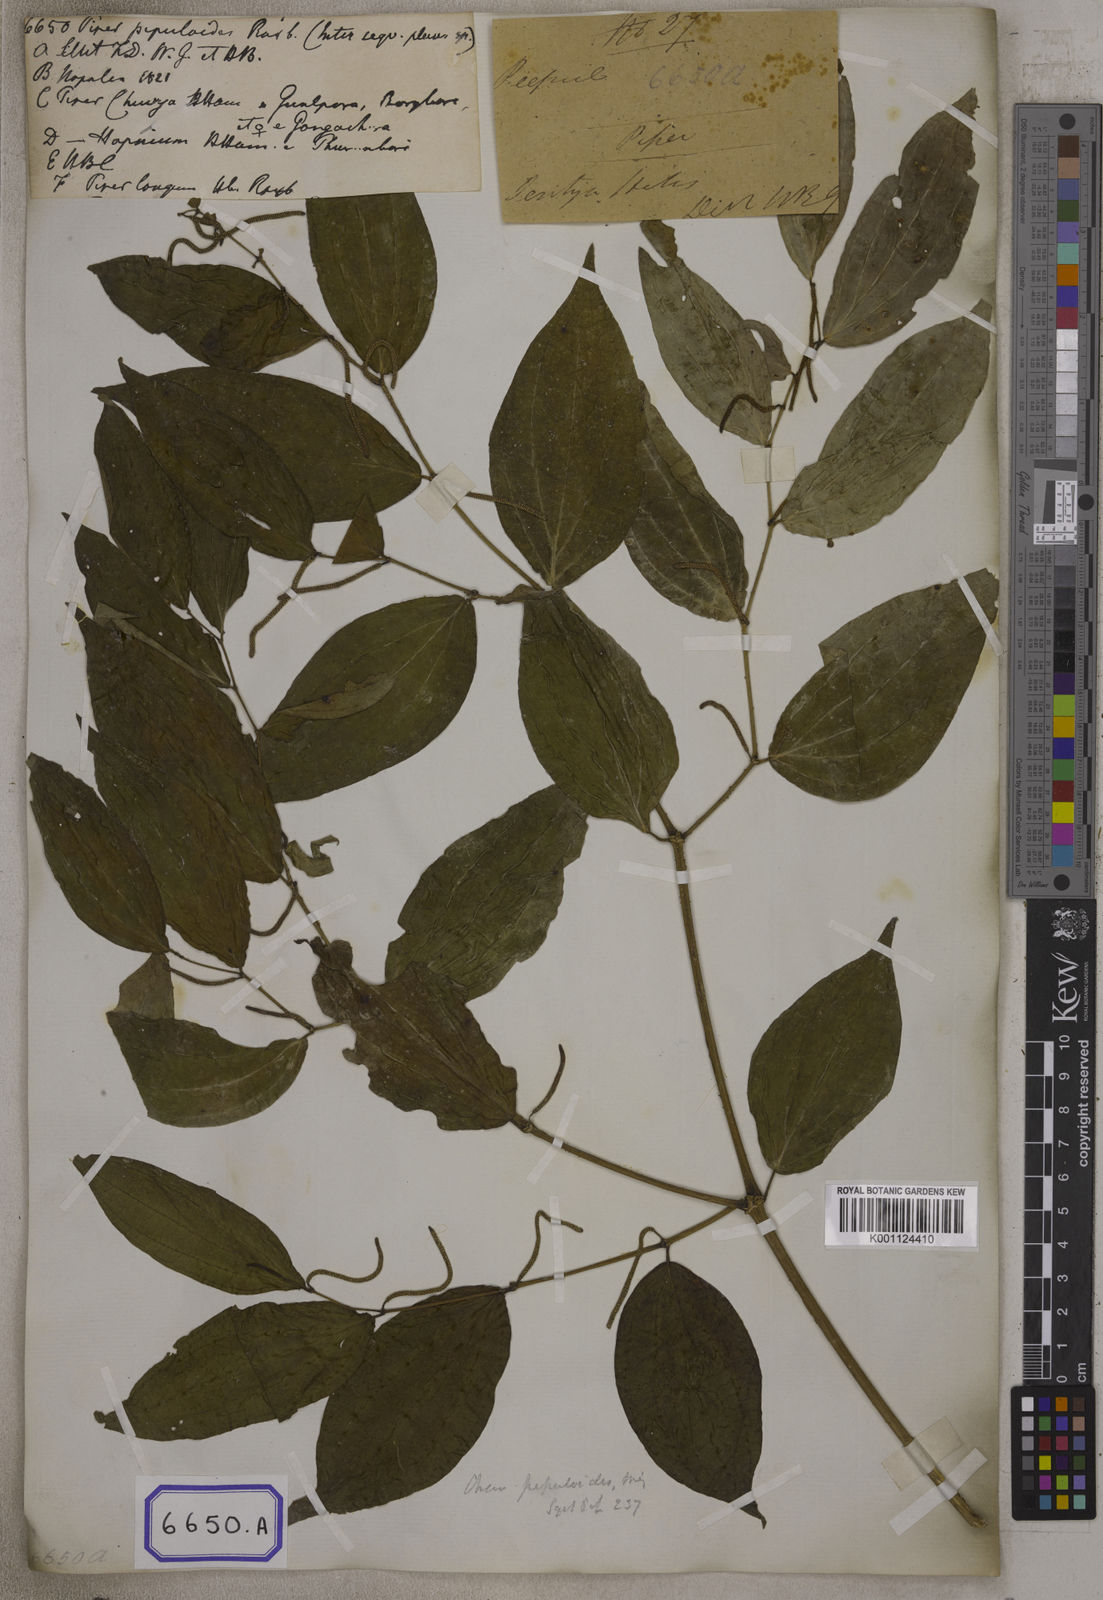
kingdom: Plantae
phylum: Tracheophyta
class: Magnoliopsida
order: Piperales
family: Piperaceae
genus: Piper
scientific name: Piper
